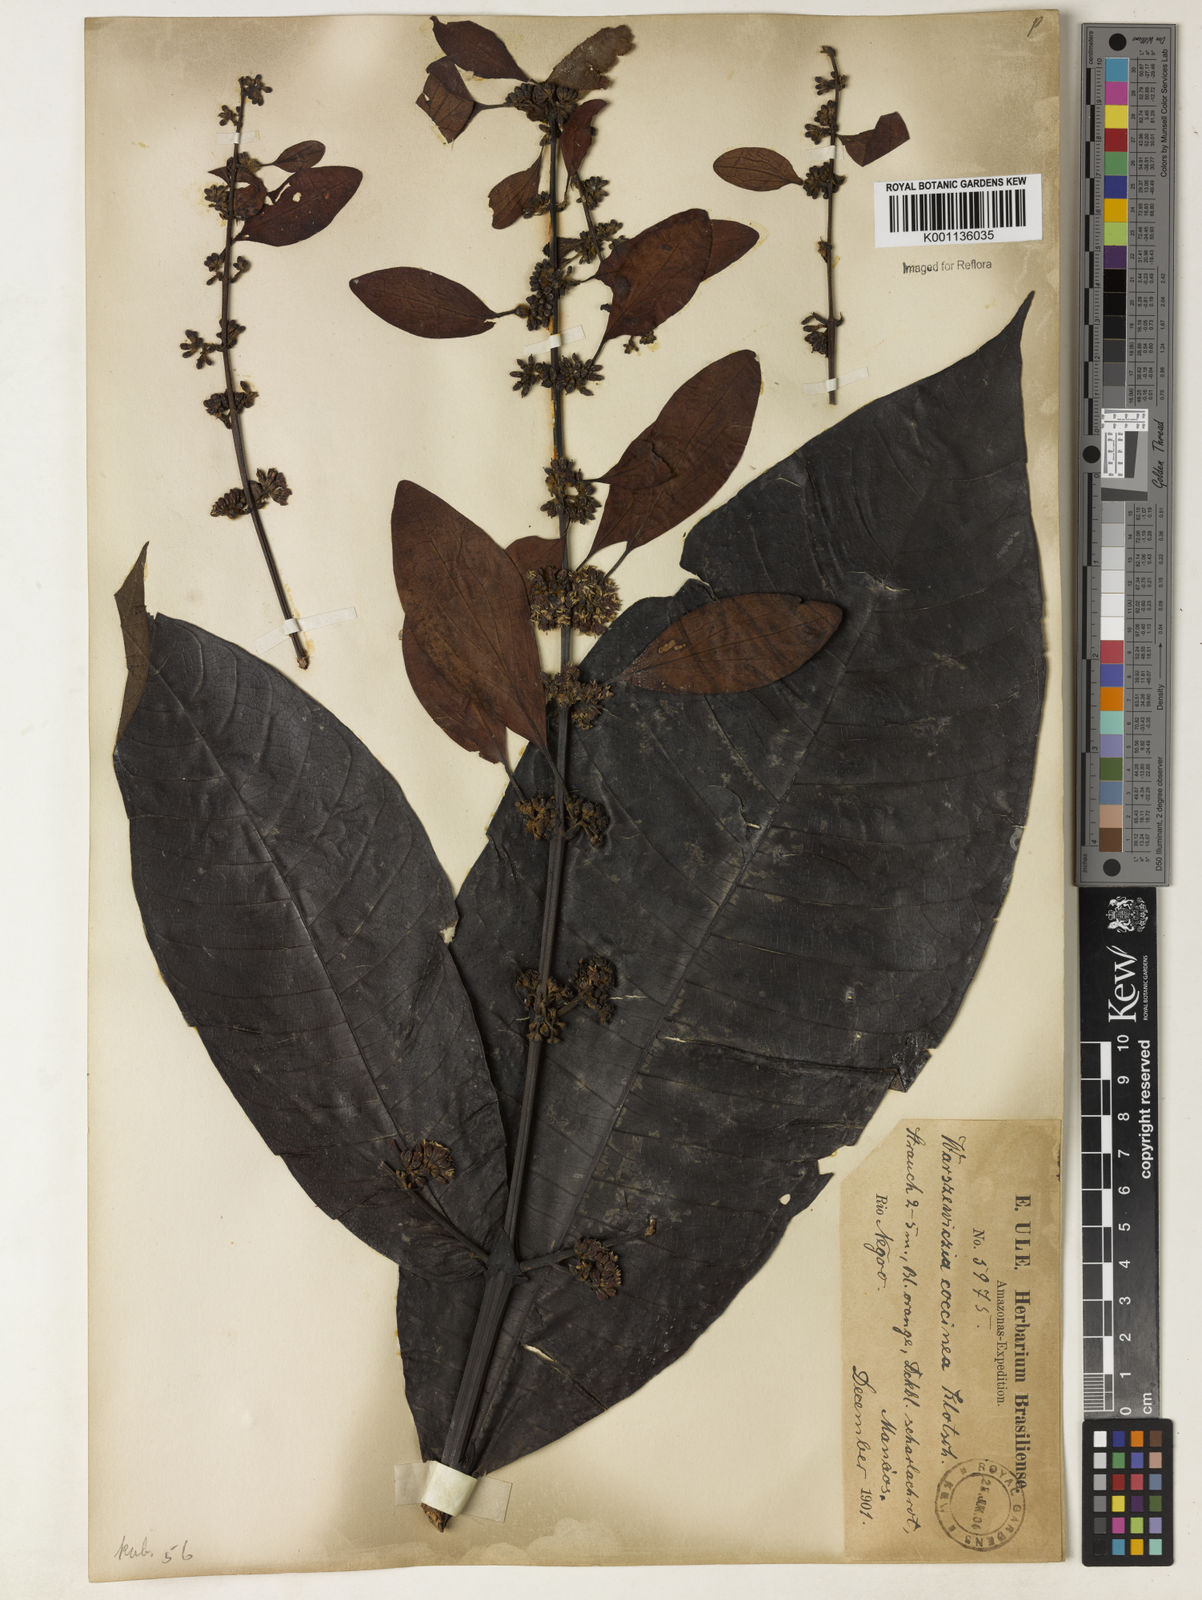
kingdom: Plantae
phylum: Tracheophyta
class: Magnoliopsida
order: Gentianales
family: Rubiaceae
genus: Warszewiczia
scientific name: Warszewiczia coccinea
